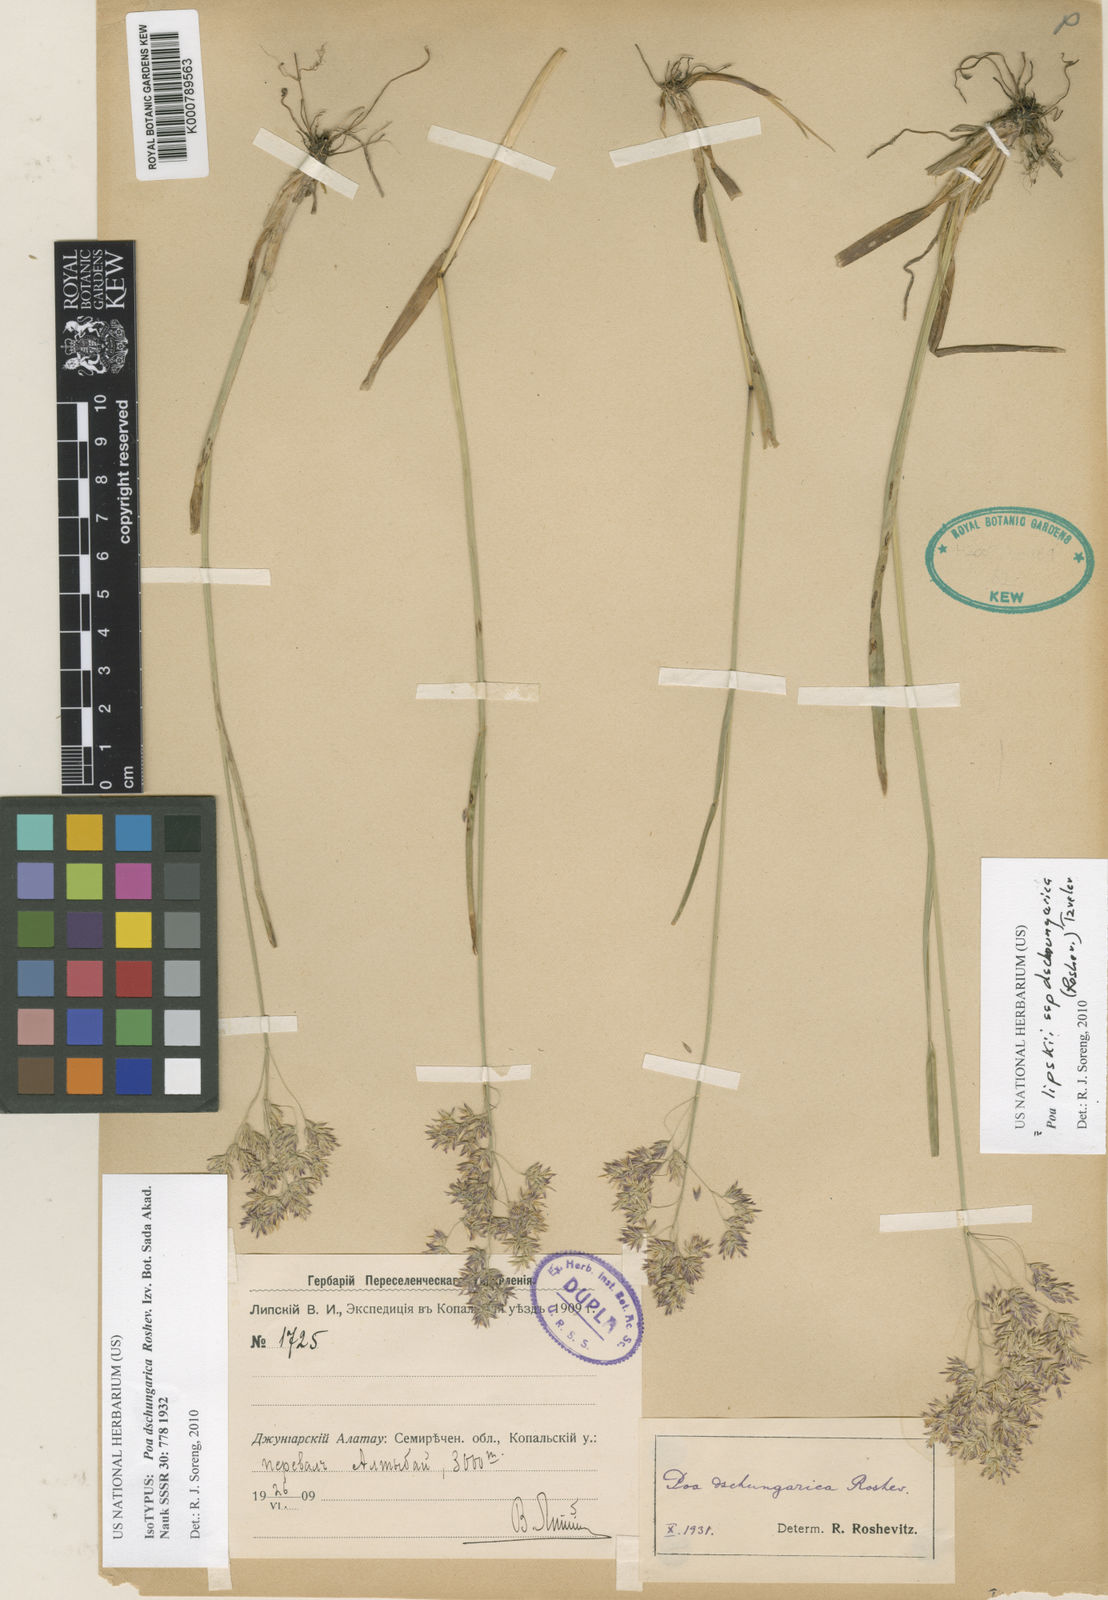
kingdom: Plantae
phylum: Tracheophyta
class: Liliopsida
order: Poales
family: Poaceae
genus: Poa
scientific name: Poa lipskyi
